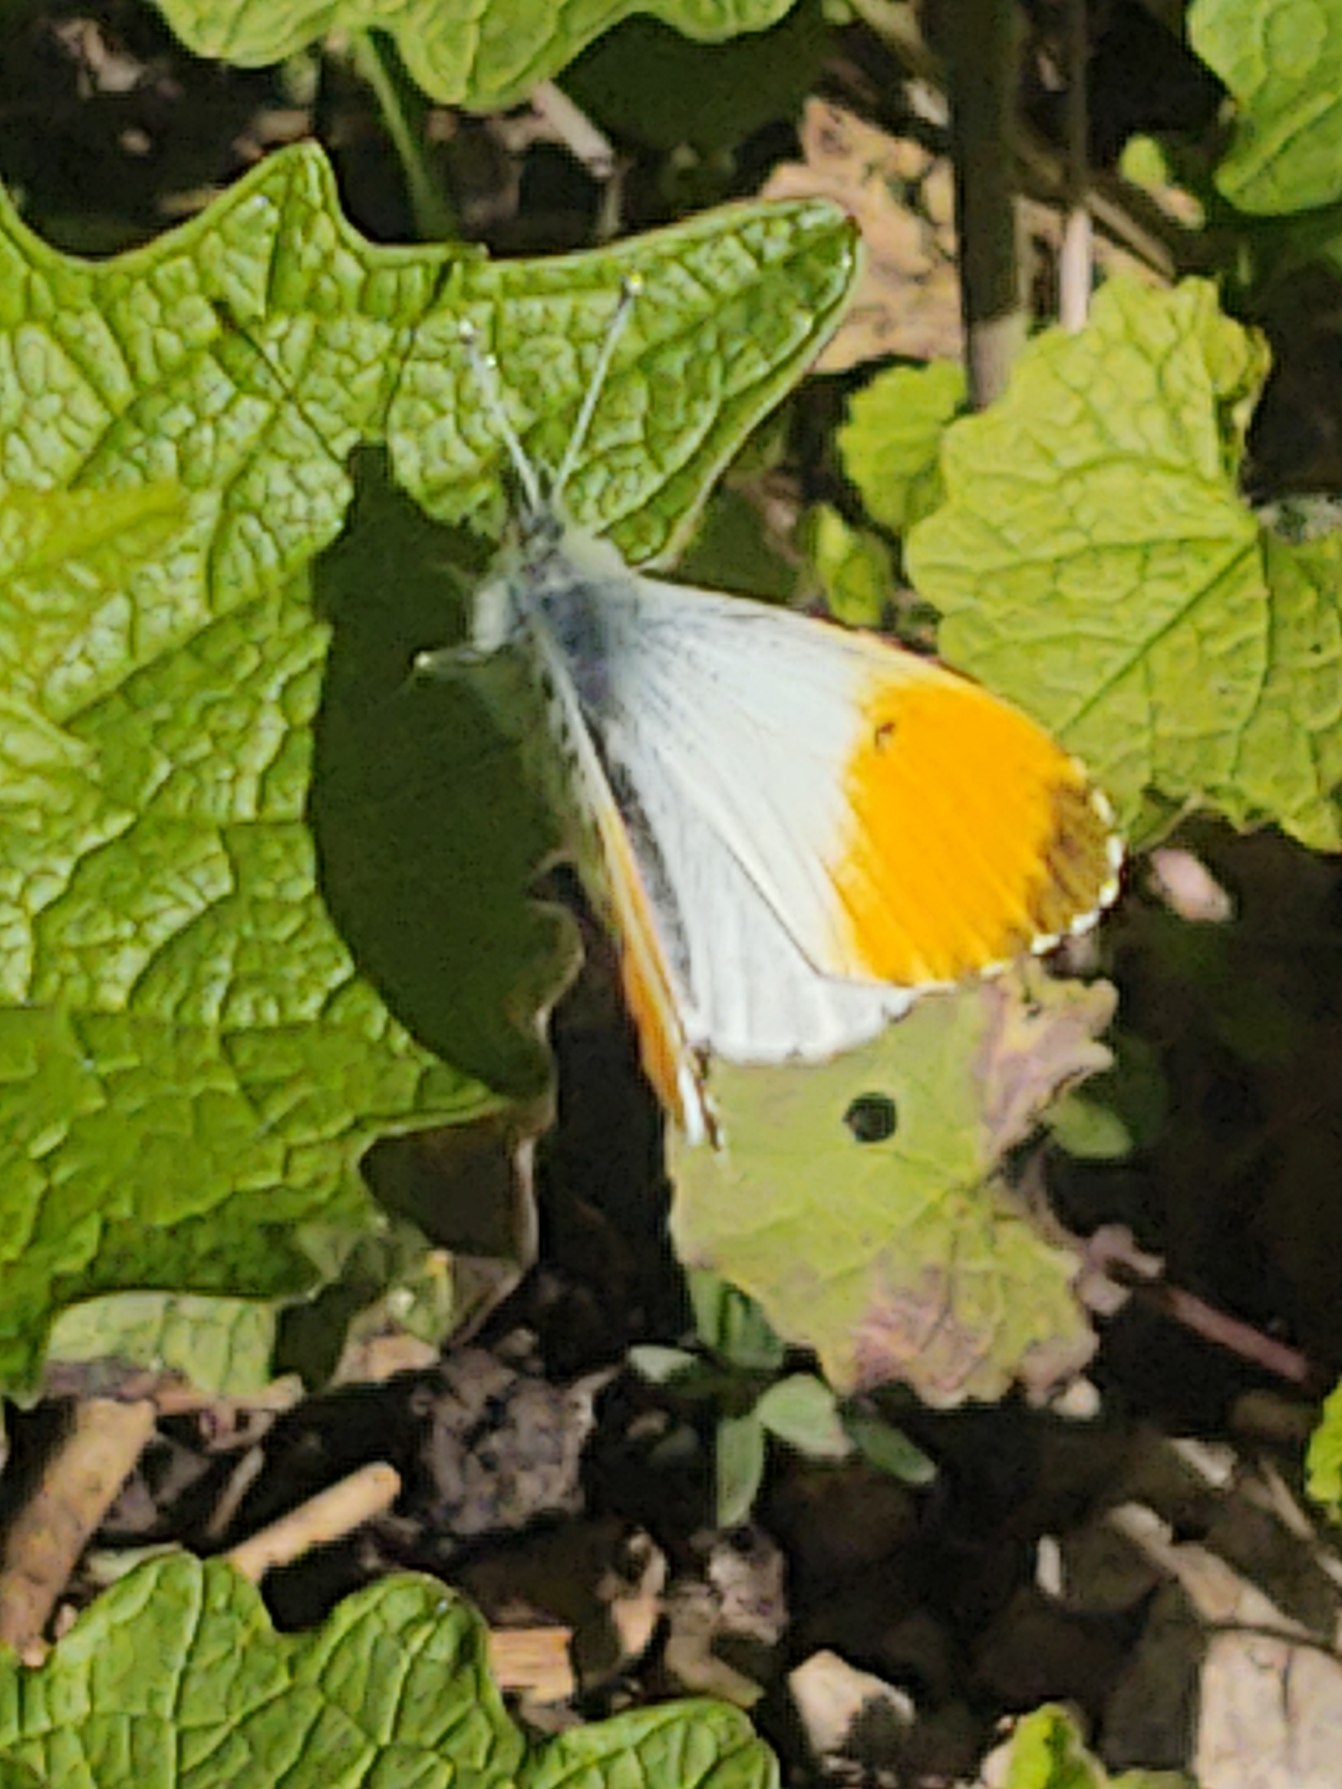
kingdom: Animalia
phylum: Arthropoda
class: Insecta
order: Lepidoptera
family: Pieridae
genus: Anthocharis
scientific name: Anthocharis cardamines
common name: Aurora
